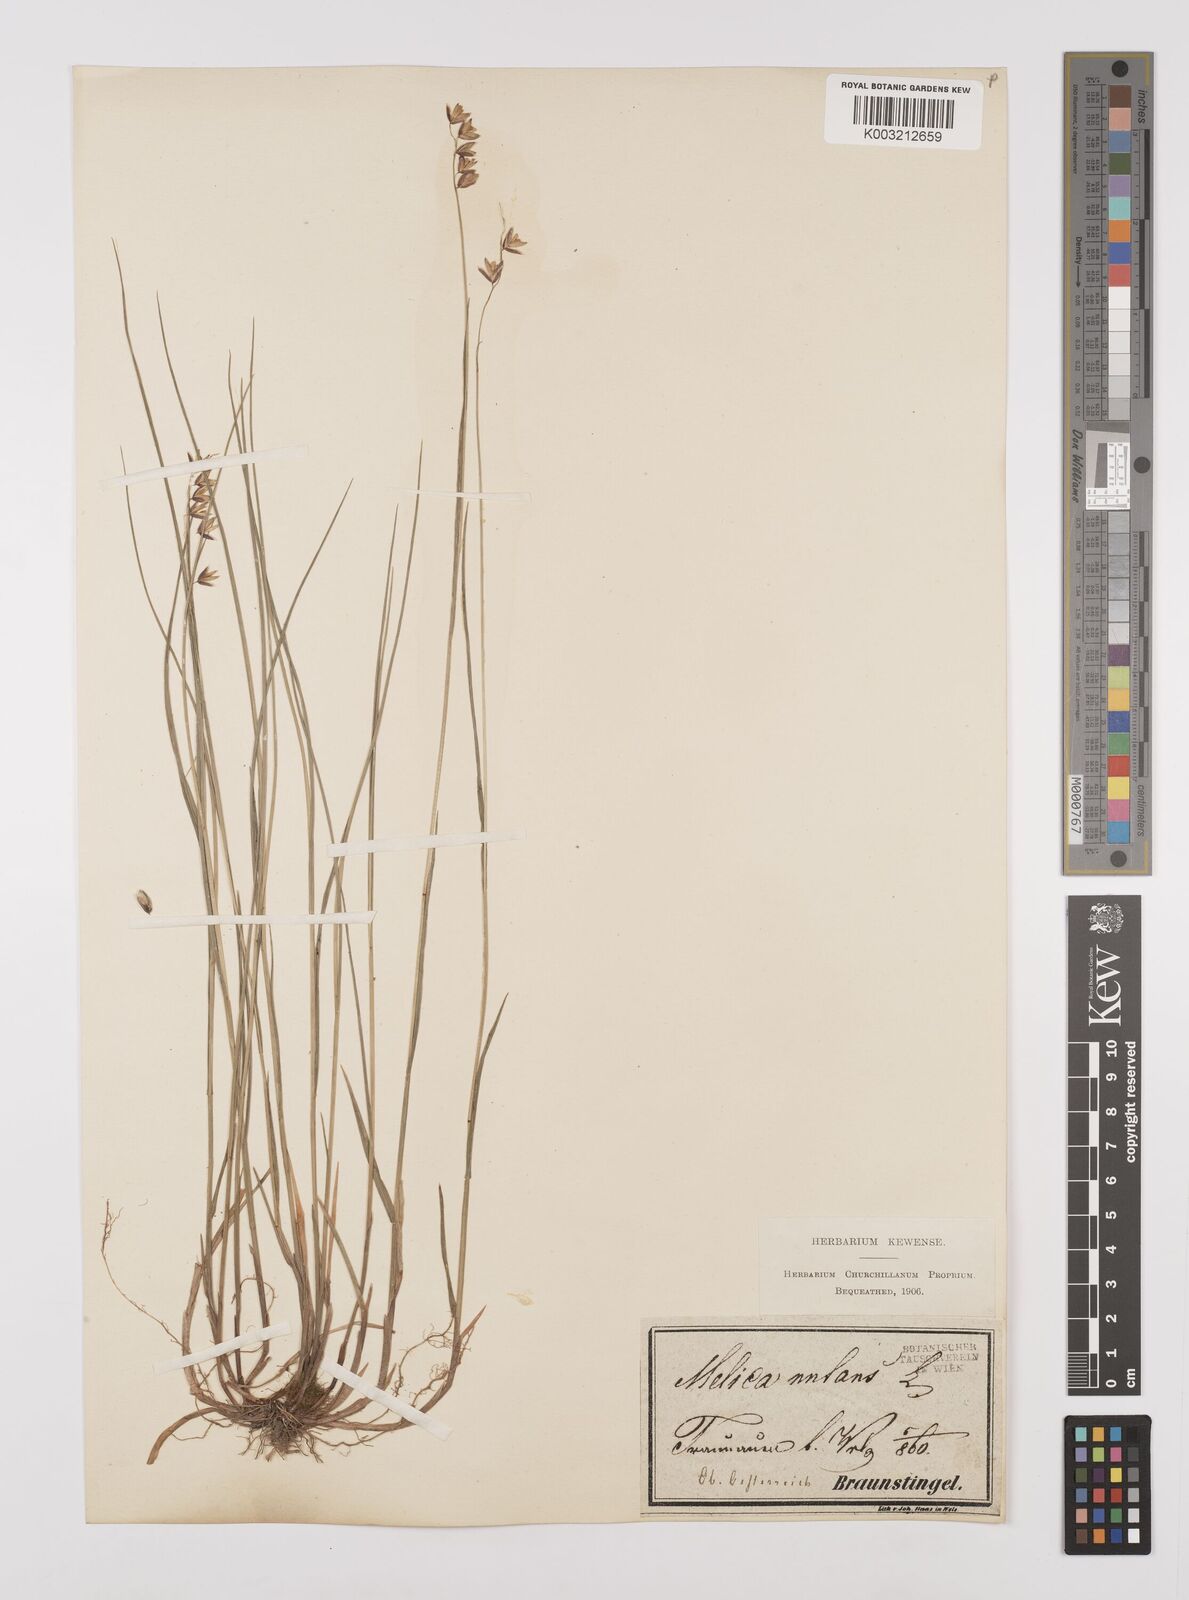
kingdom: Plantae
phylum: Tracheophyta
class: Liliopsida
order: Poales
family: Poaceae
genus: Melica
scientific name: Melica
